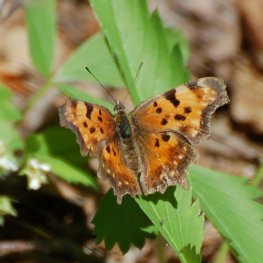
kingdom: Animalia
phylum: Arthropoda
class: Insecta
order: Lepidoptera
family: Nymphalidae
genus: Polygonia
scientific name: Polygonia gracilis
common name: Hoary Comma
